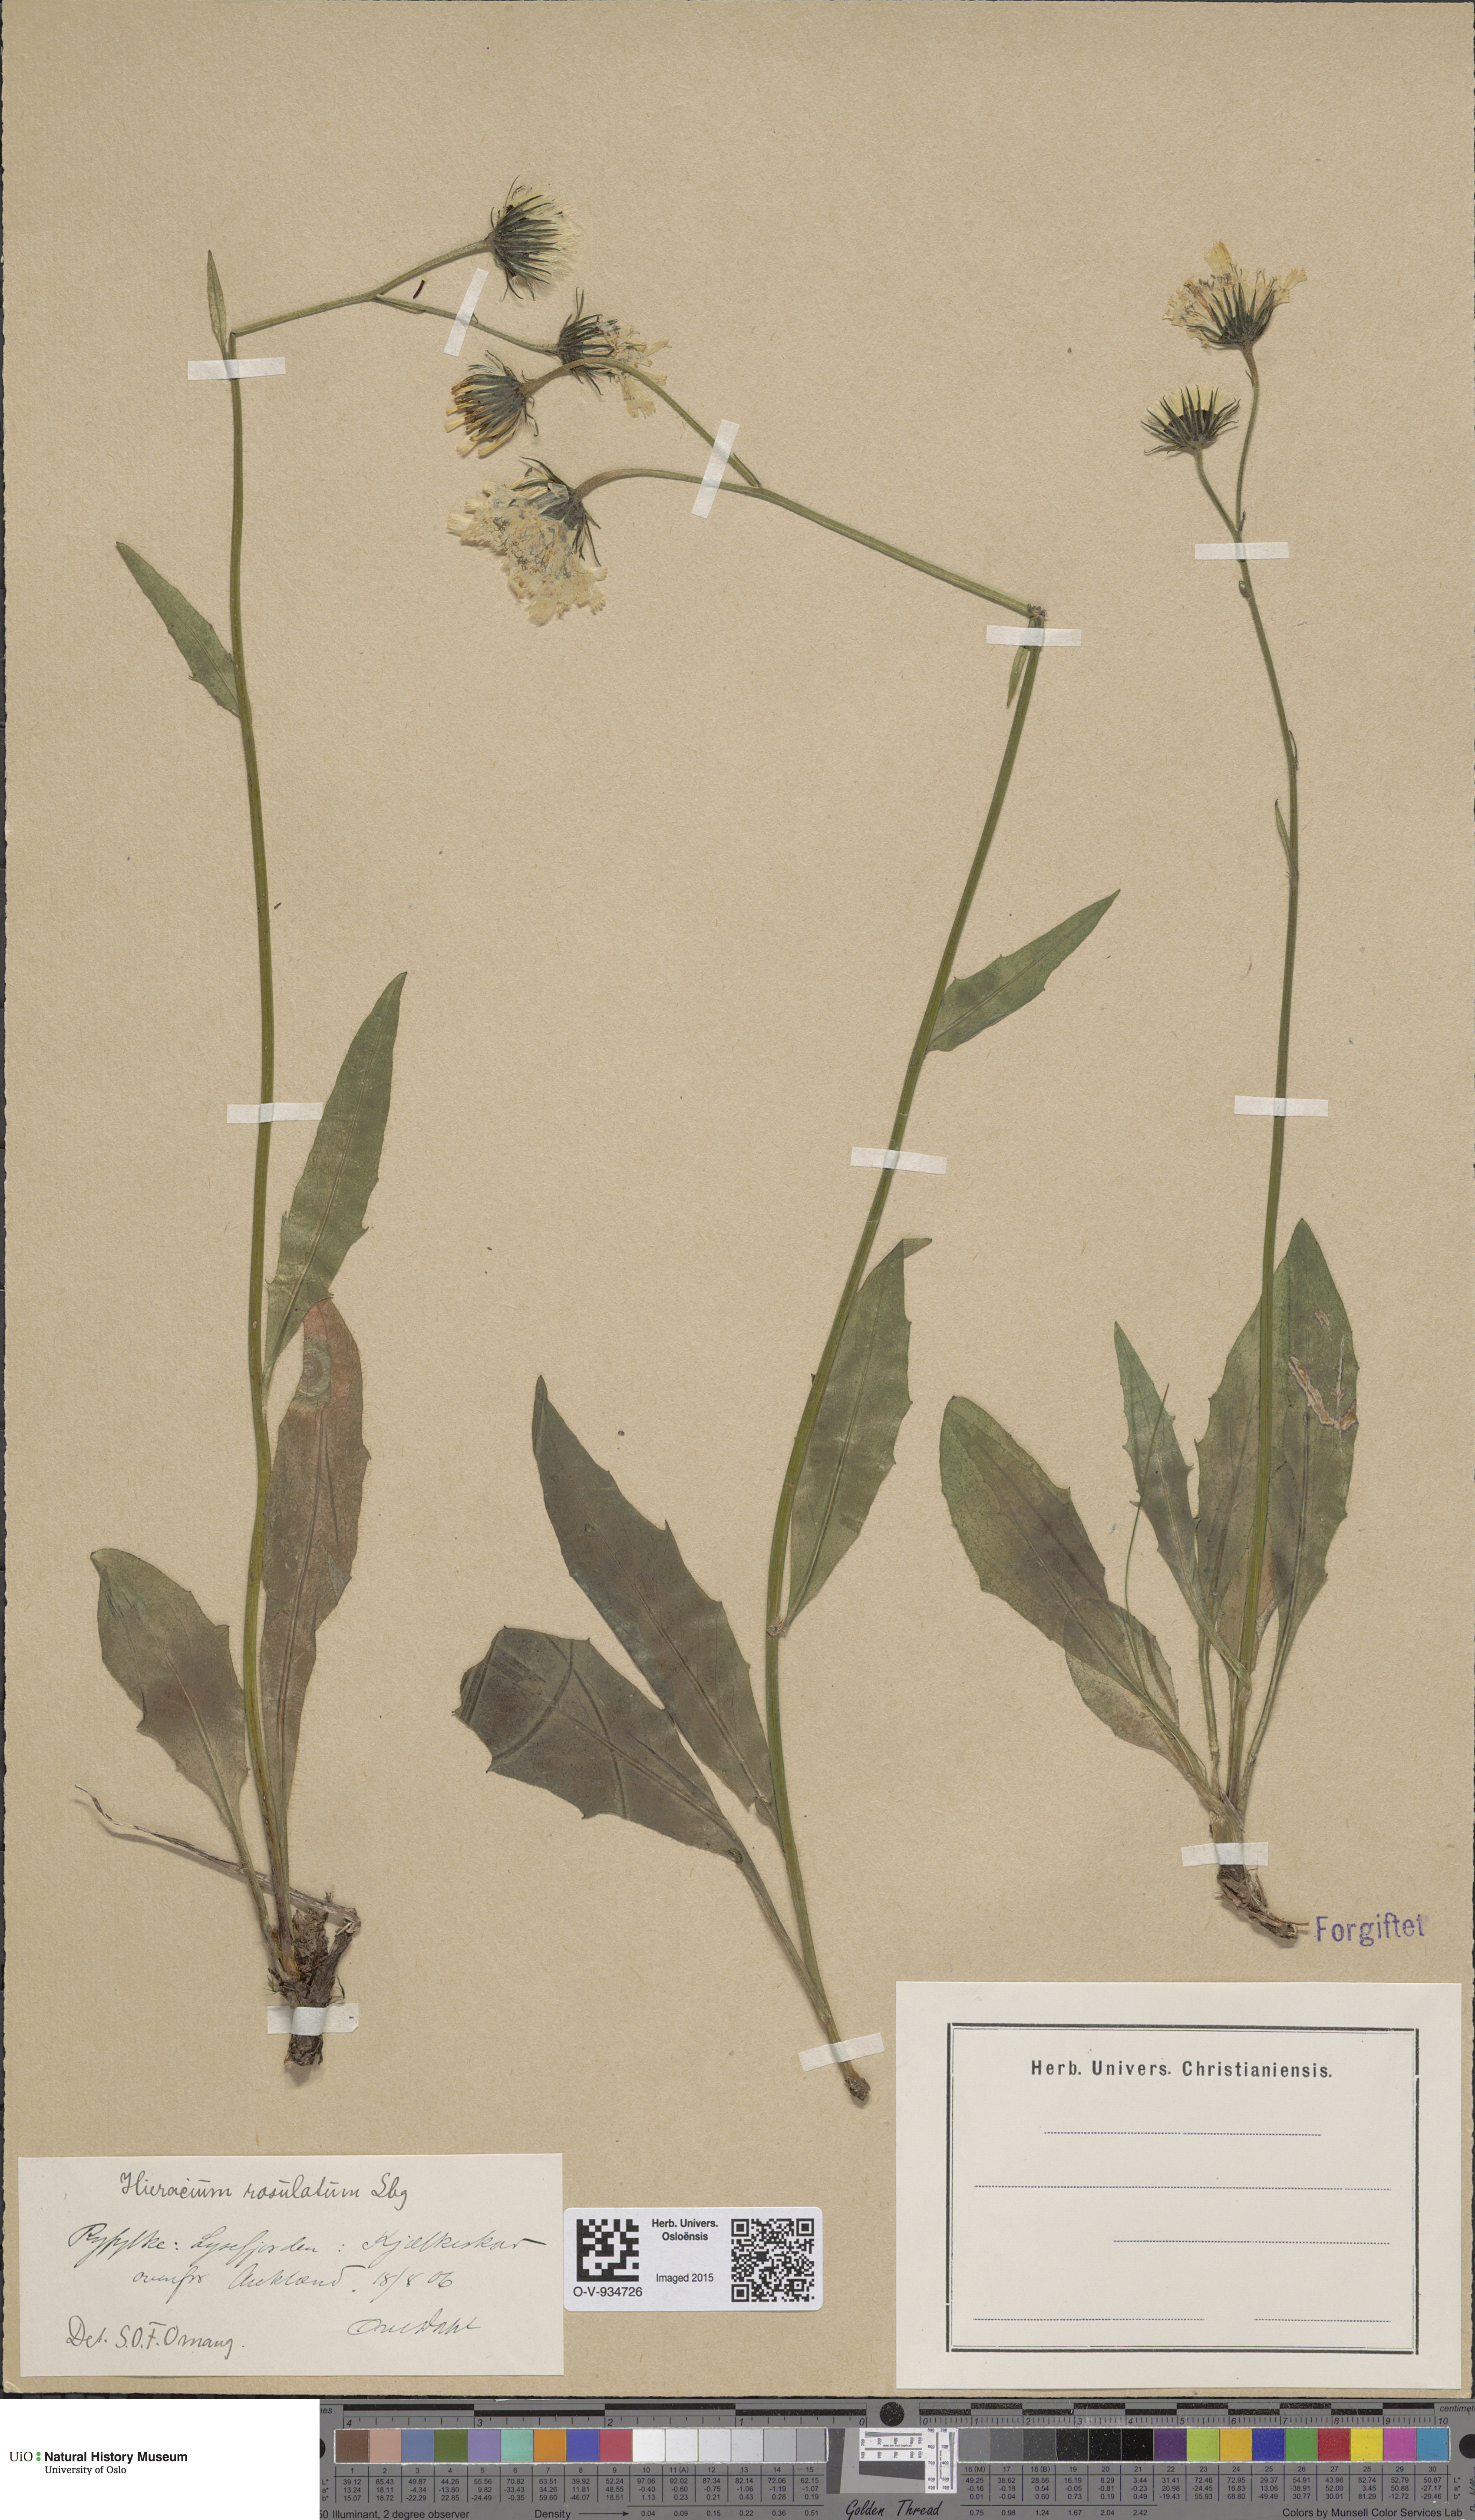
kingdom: Plantae
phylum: Tracheophyta
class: Magnoliopsida
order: Asterales
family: Asteraceae
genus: Hieracium
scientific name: Hieracium rosulatum
